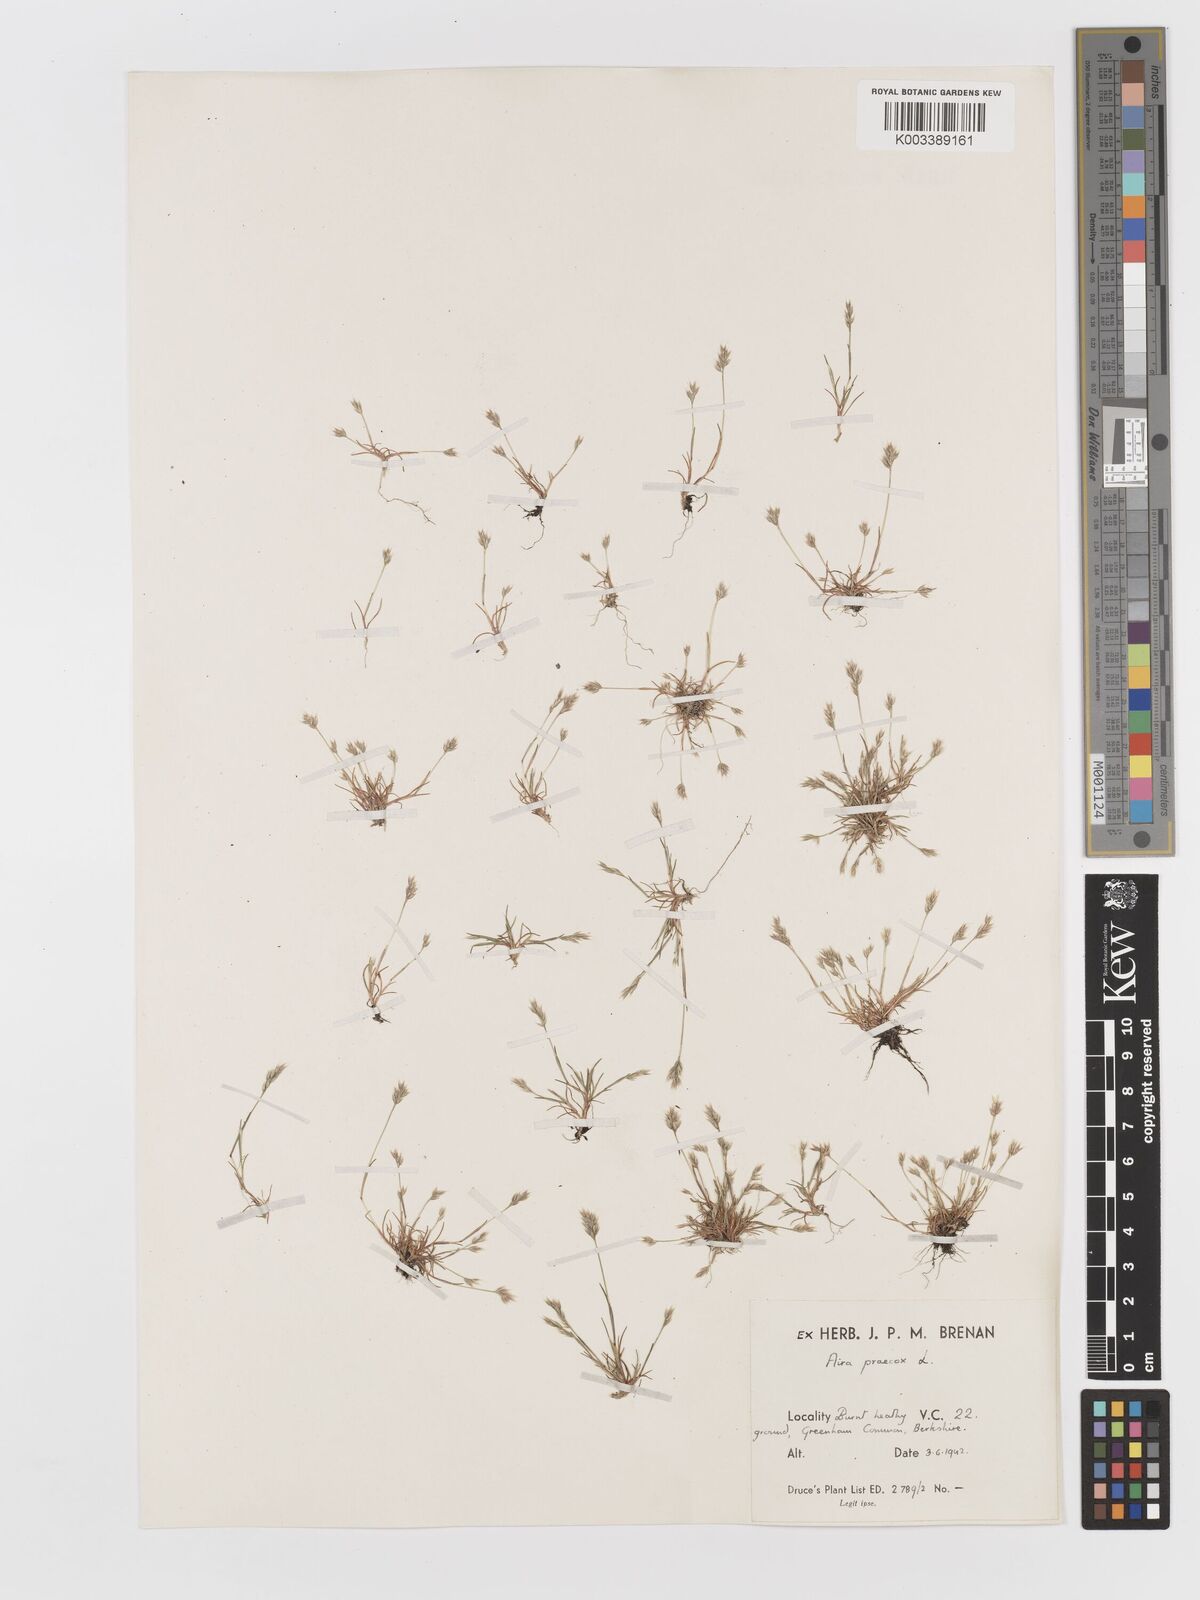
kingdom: Plantae
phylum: Tracheophyta
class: Liliopsida
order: Poales
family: Poaceae
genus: Aira
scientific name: Aira praecox
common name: Early hair-grass
